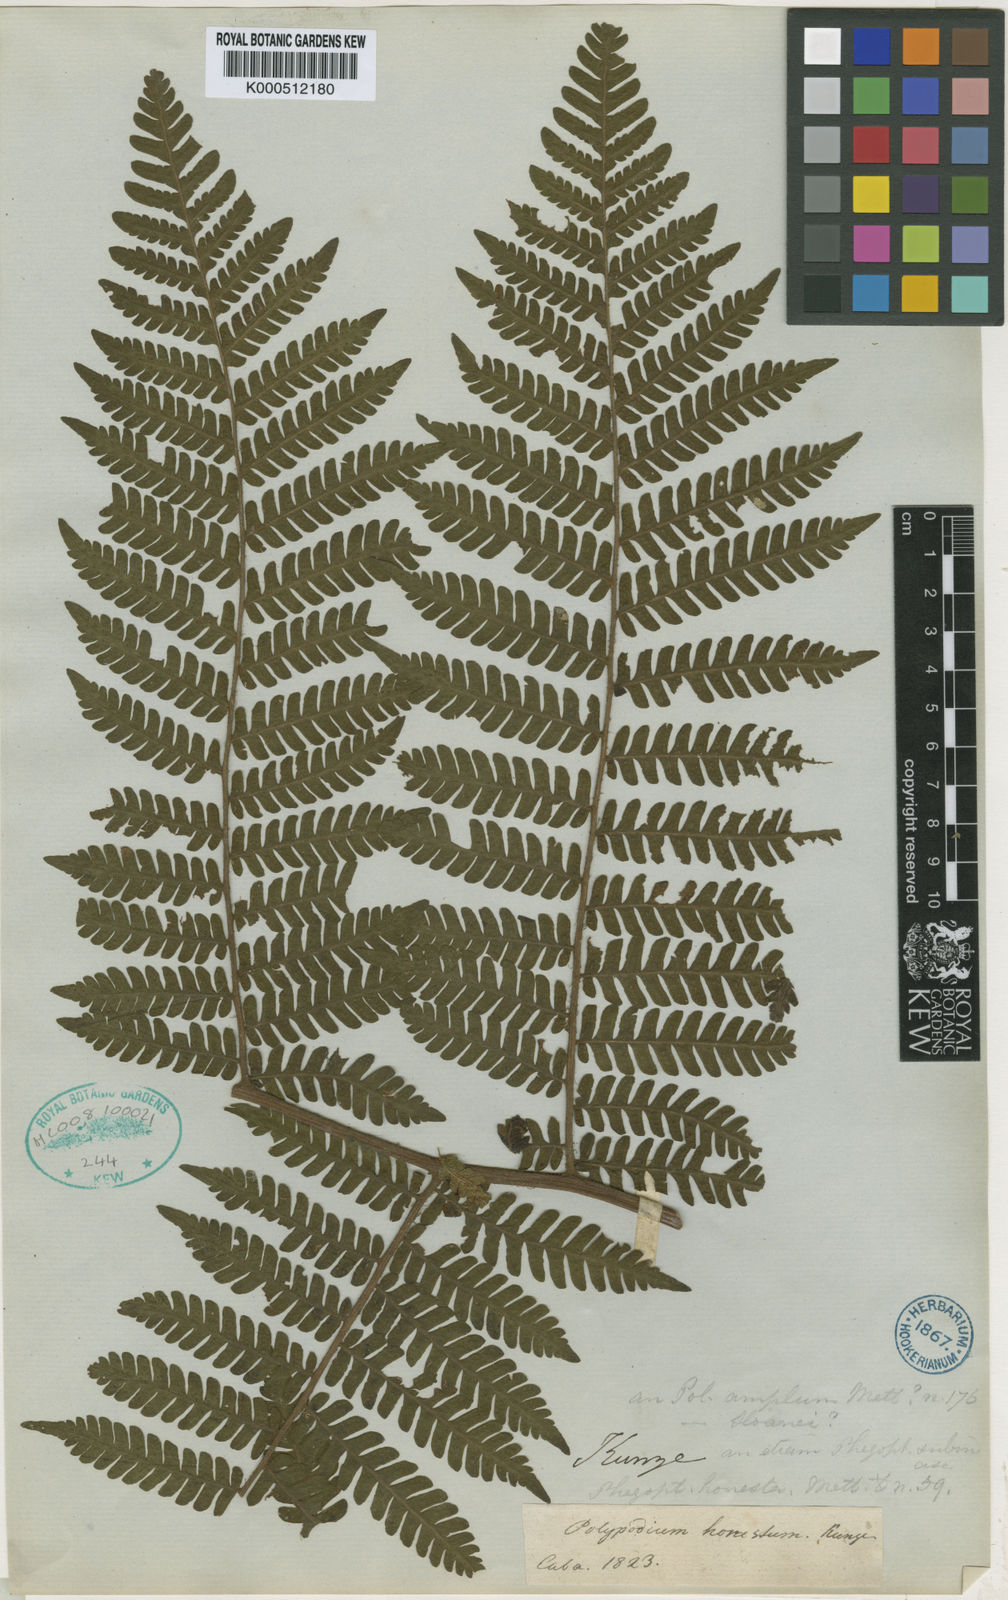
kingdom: Plantae
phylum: Tracheophyta
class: Polypodiopsida
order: Polypodiales
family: Dryopteridaceae
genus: Megalastrum
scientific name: Megalastrum caribaeum
